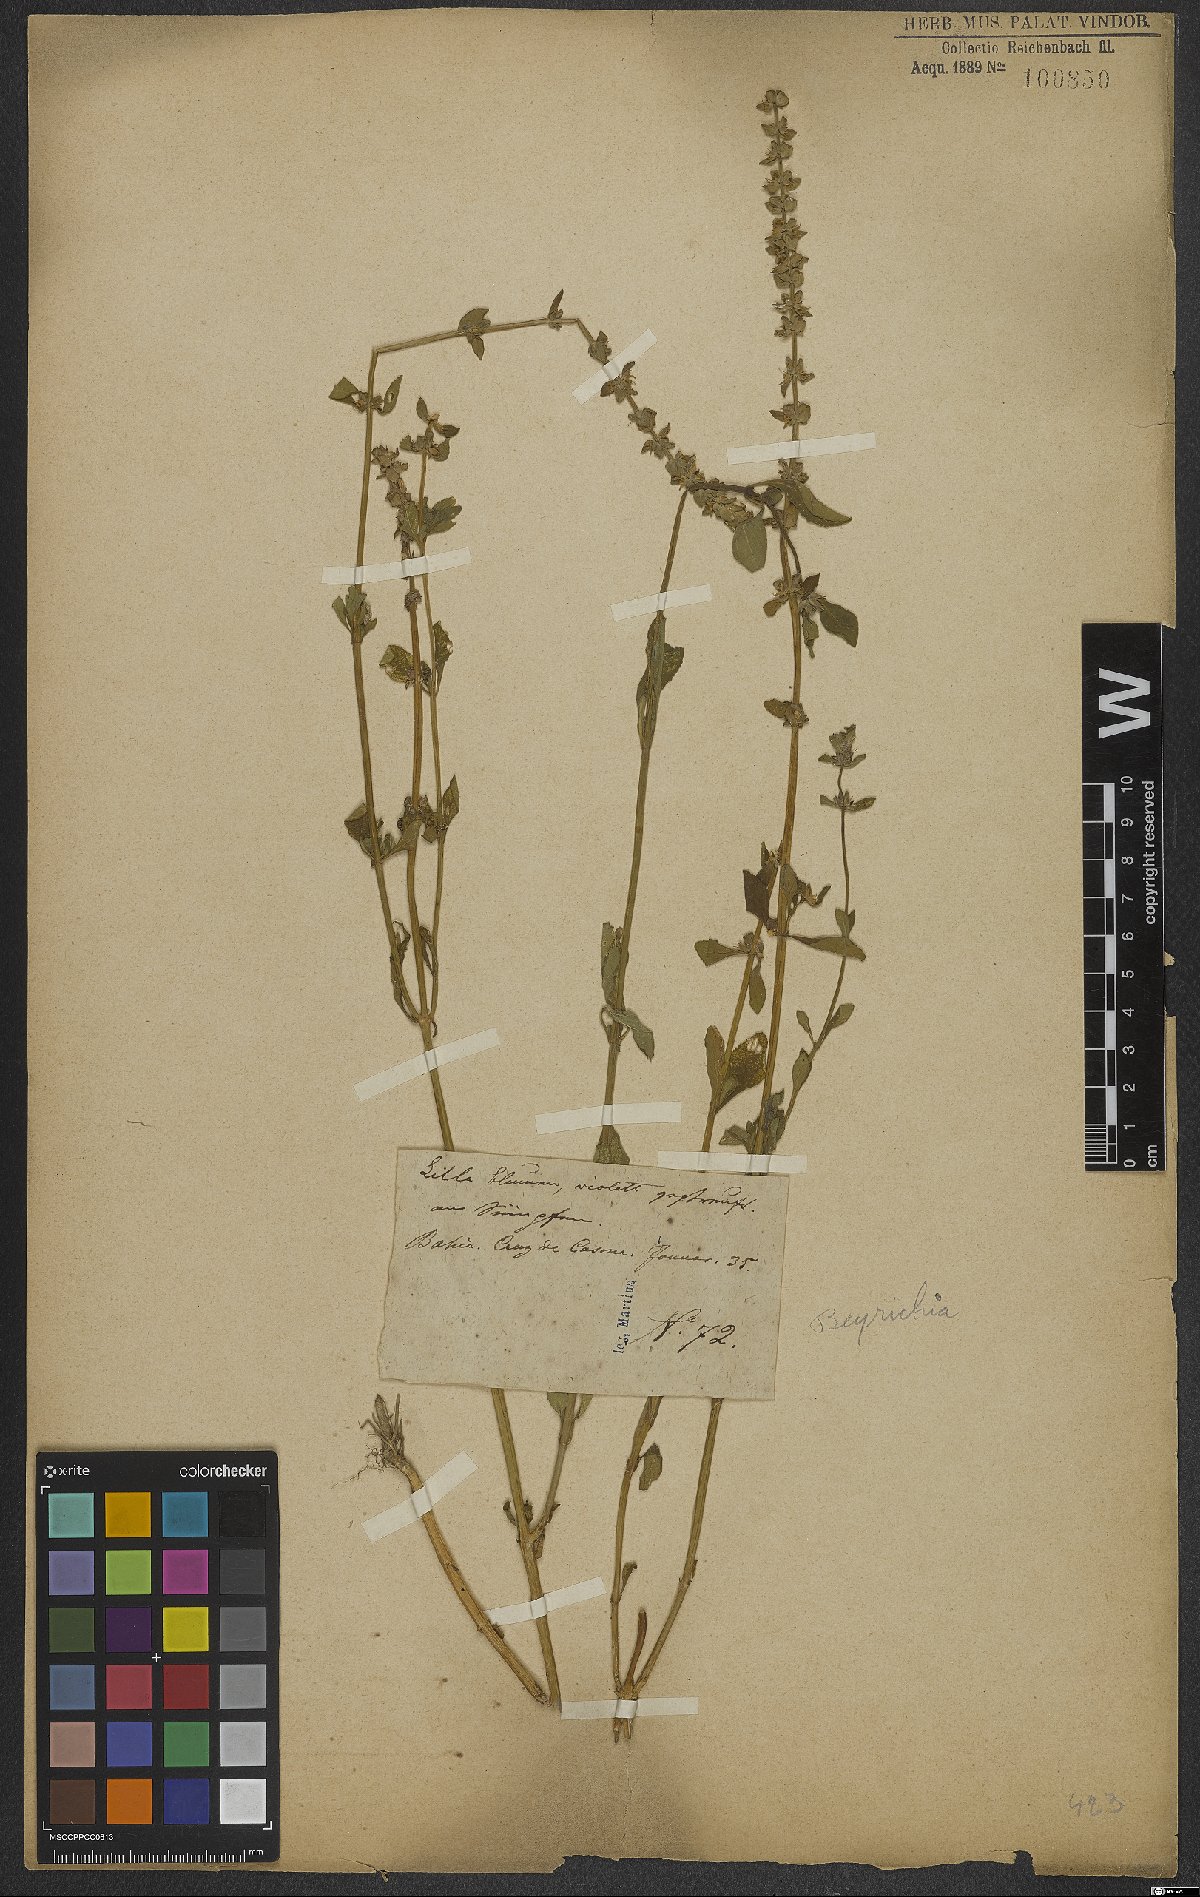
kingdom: Plantae
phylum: Tracheophyta
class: Magnoliopsida
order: Lamiales
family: Plantaginaceae
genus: Matourea
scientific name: Matourea
